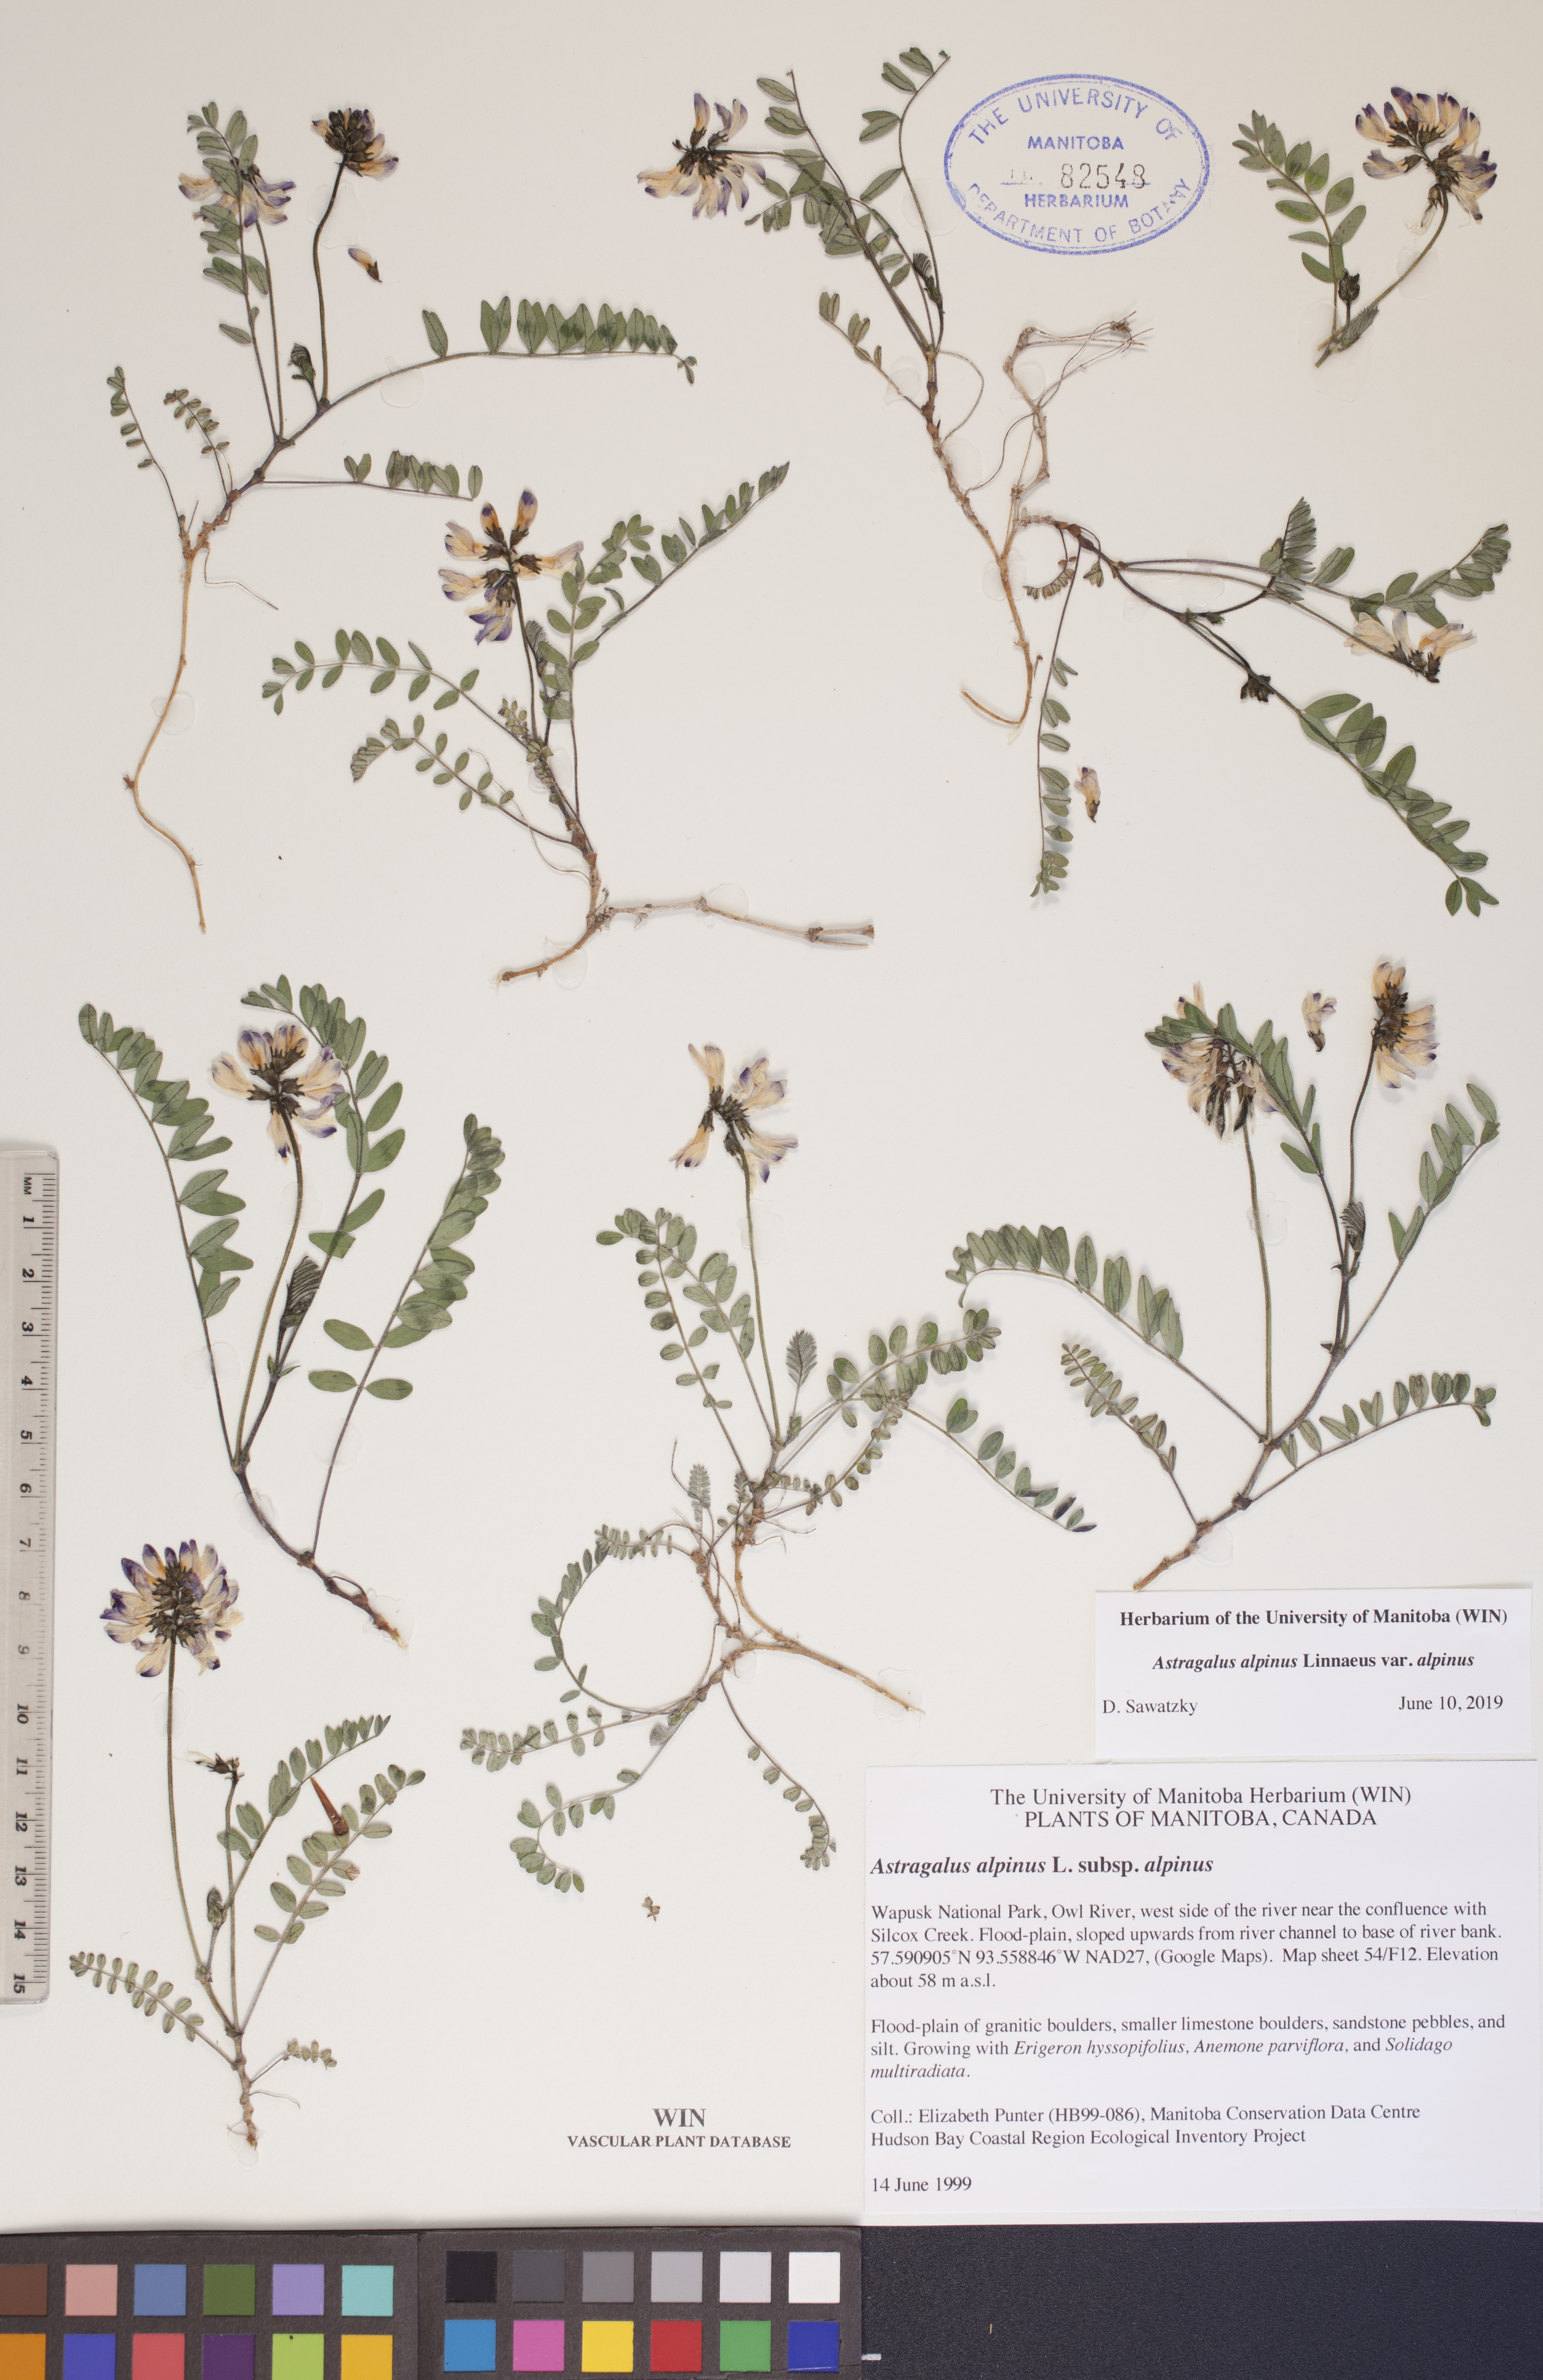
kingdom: Plantae
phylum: Tracheophyta
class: Magnoliopsida
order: Fabales
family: Fabaceae
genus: Astragalus
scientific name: Astragalus alpinus
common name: Alpine milk-vetch
